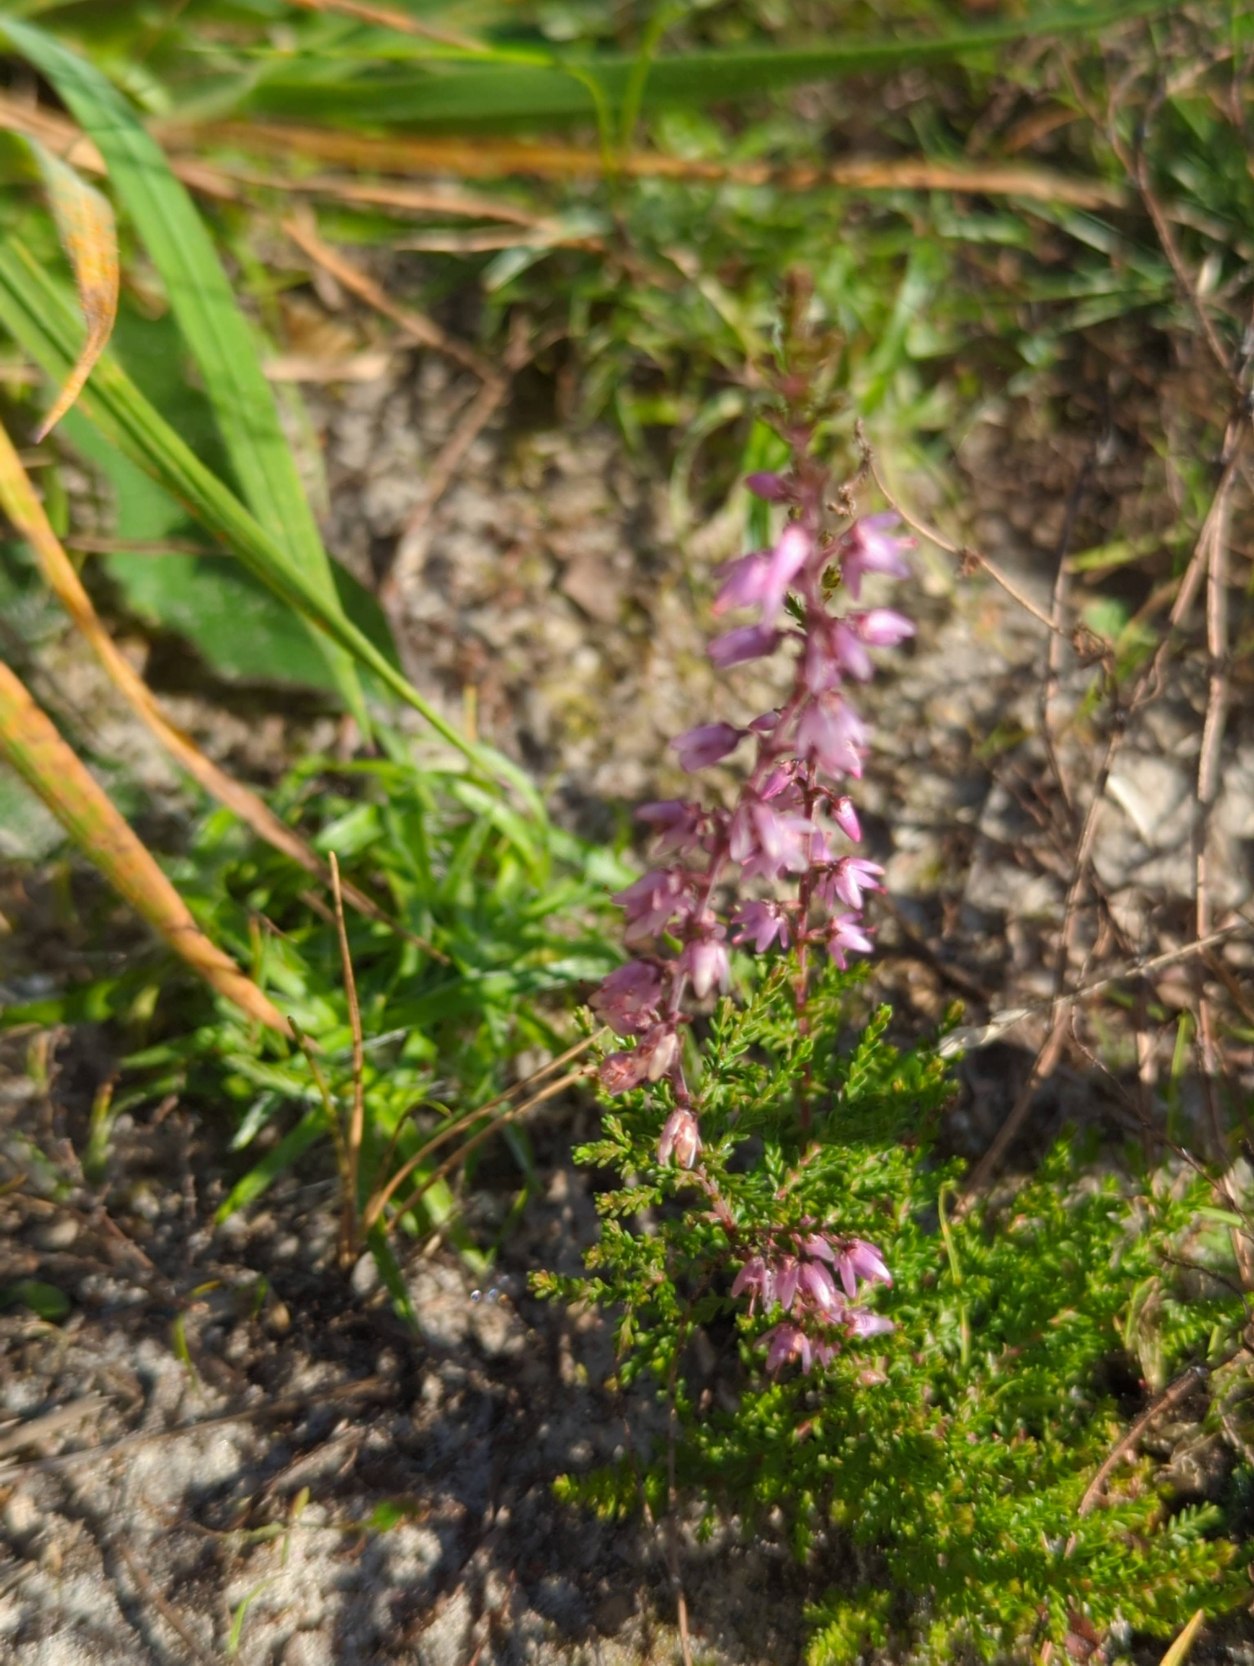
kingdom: Plantae
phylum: Tracheophyta
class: Magnoliopsida
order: Ericales
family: Ericaceae
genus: Calluna
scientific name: Calluna vulgaris
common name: Hedelyng
